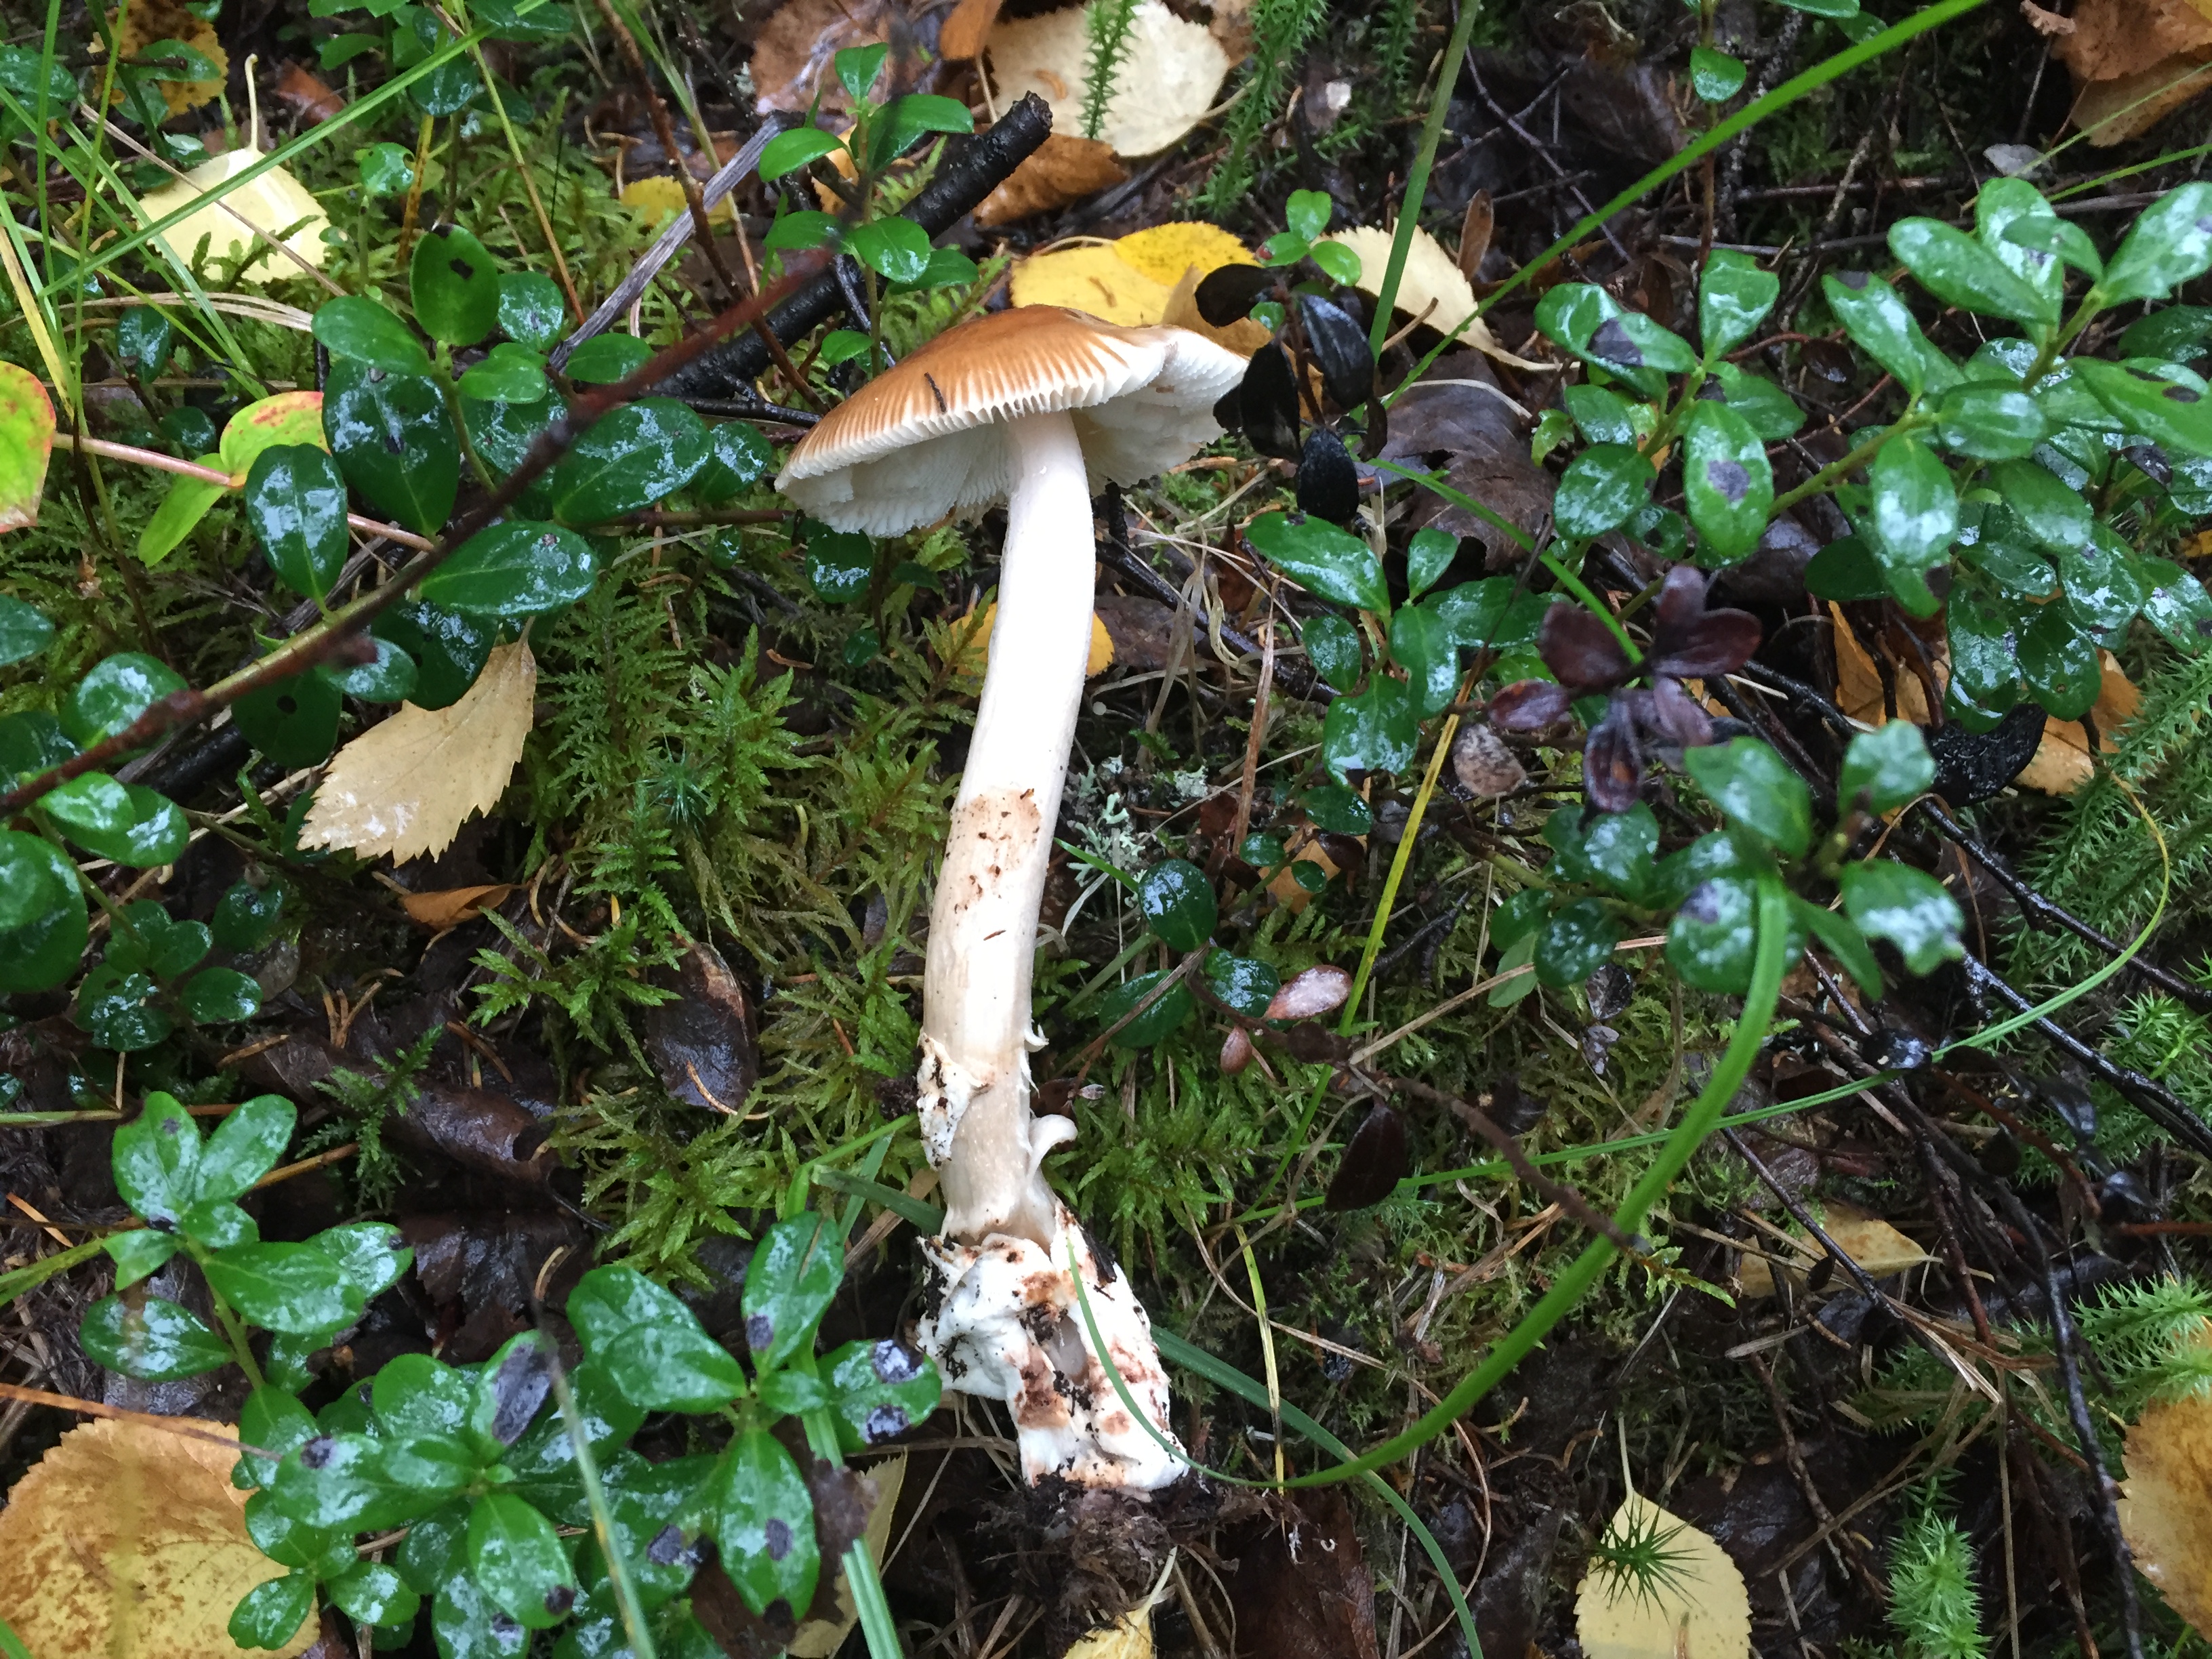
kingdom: Fungi
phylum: Basidiomycota
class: Agaricomycetes
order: Agaricales
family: Amanitaceae
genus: Amanita
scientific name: Amanita fulva
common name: Tawny grisette
